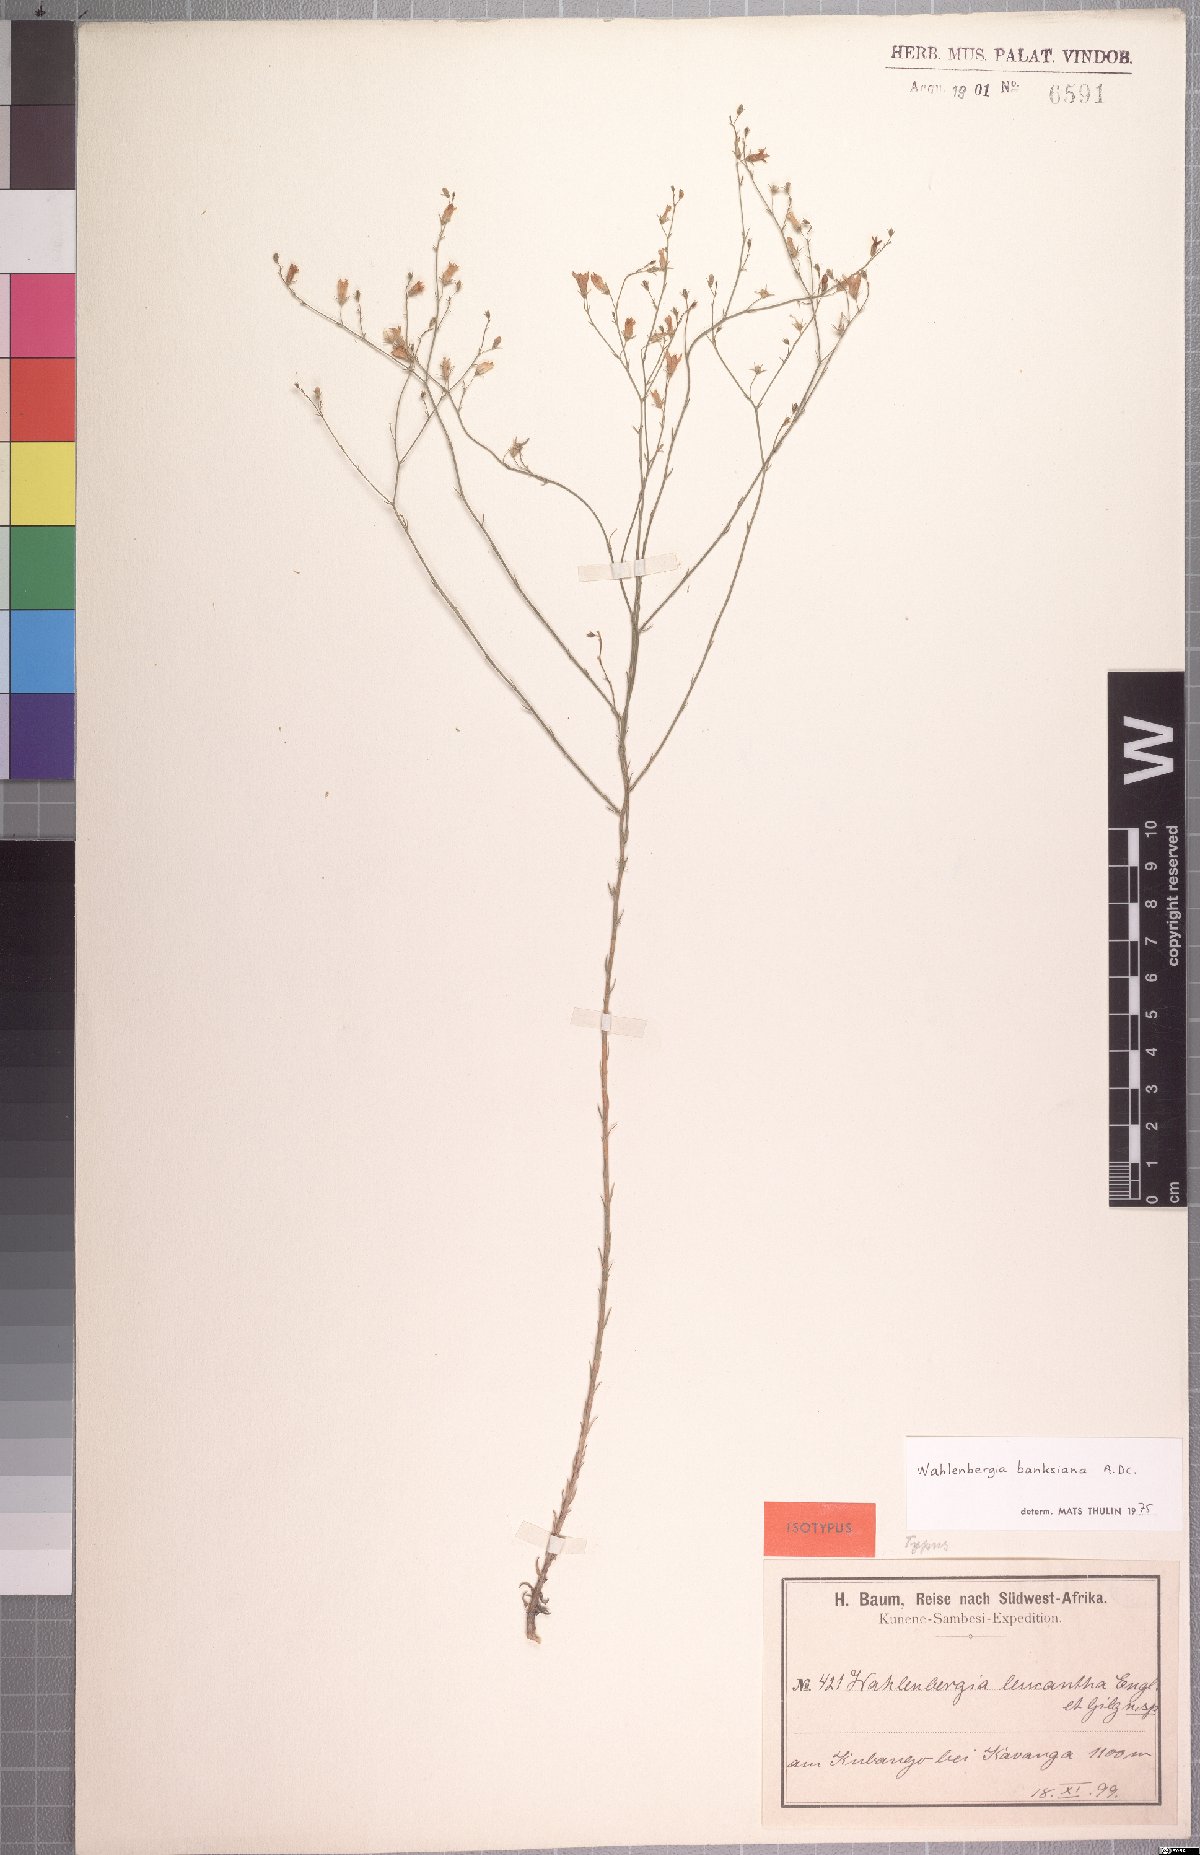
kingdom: Plantae
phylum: Tracheophyta
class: Magnoliopsida
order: Asterales
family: Campanulaceae
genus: Wahlenbergia
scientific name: Wahlenbergia banksiana
